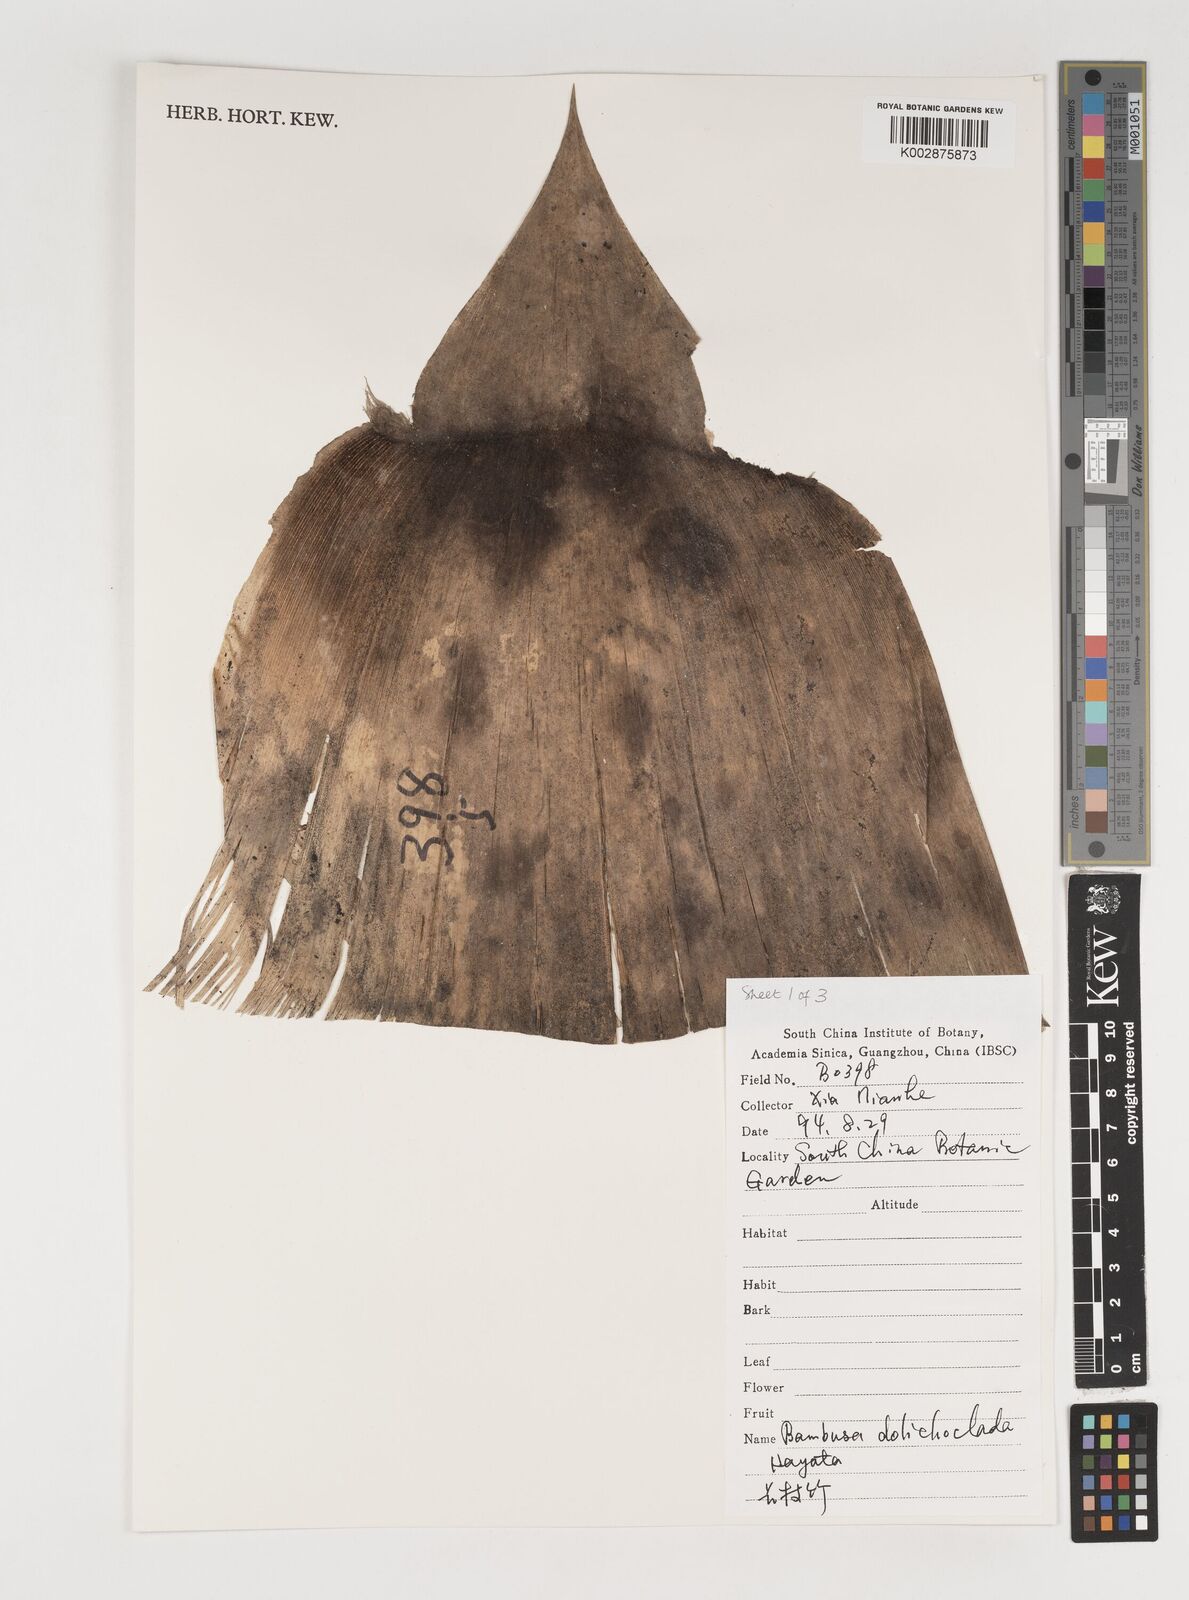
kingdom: Plantae
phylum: Tracheophyta
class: Liliopsida
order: Poales
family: Poaceae
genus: Bambusa
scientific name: Bambusa dolichoclada
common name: Long-shoot bamboo
